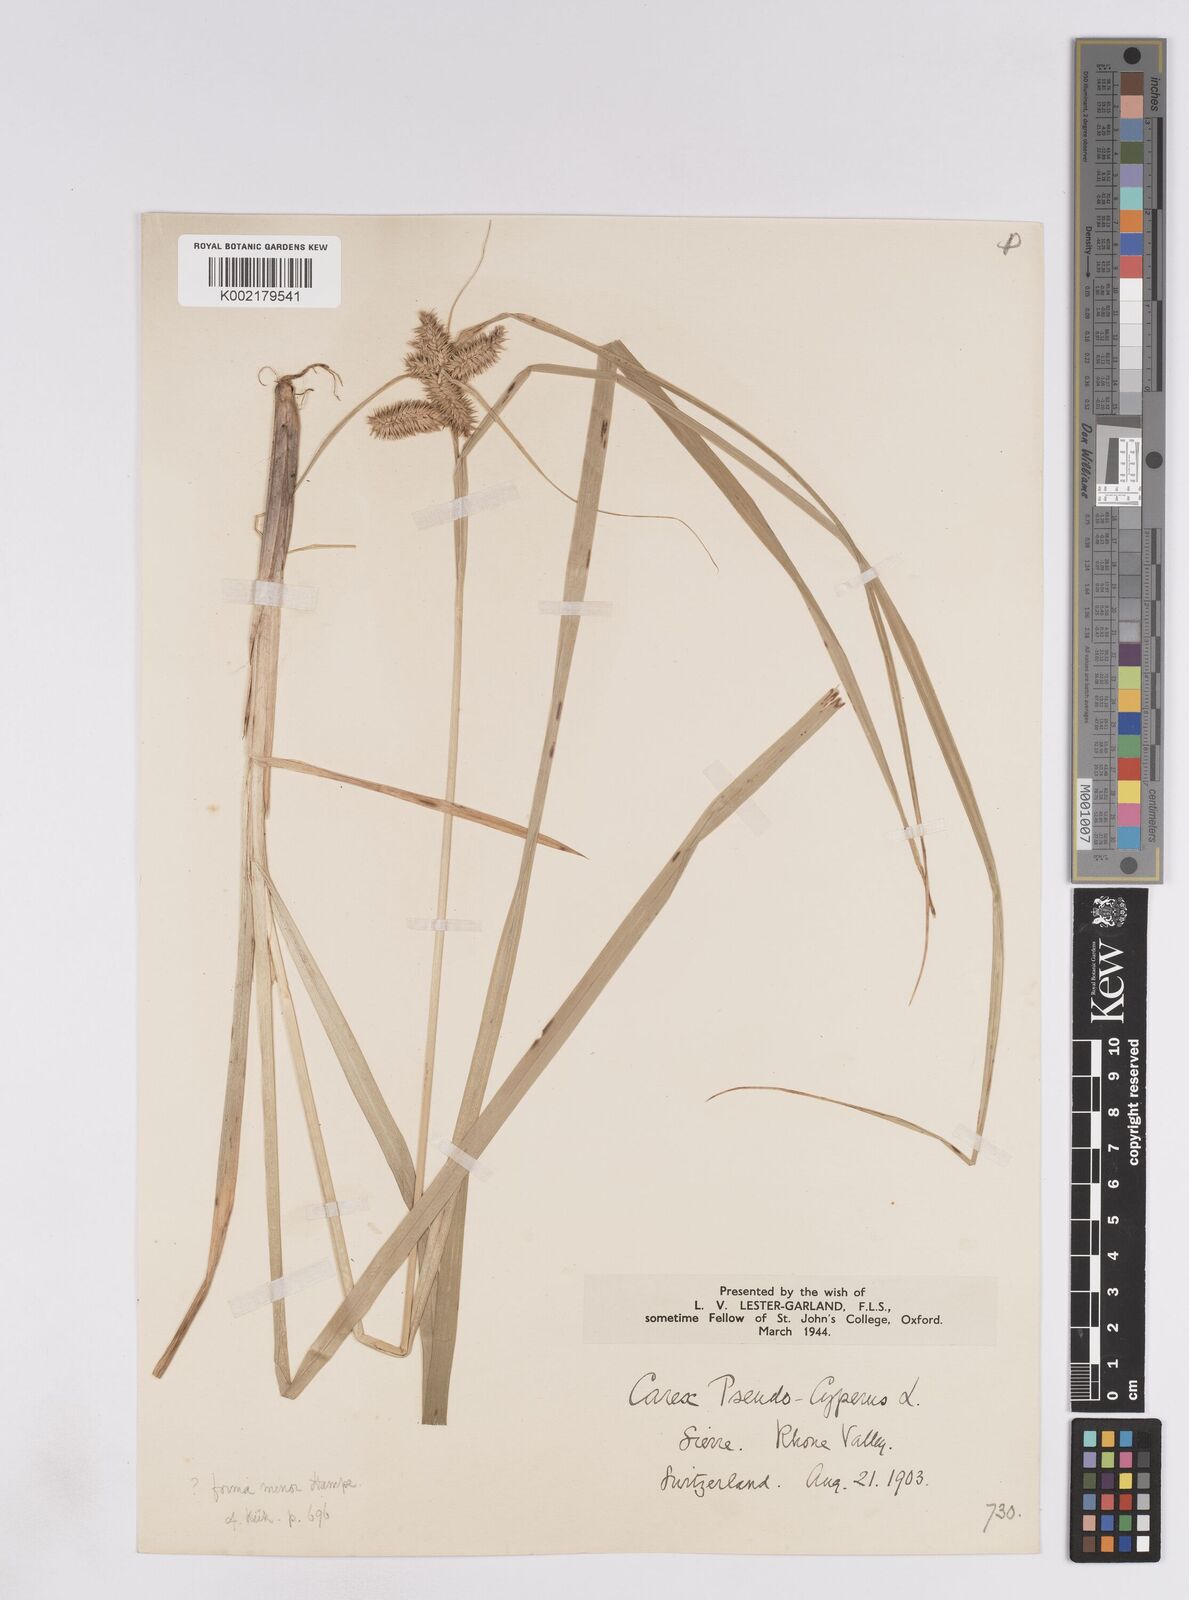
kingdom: Plantae
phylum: Tracheophyta
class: Liliopsida
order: Poales
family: Cyperaceae
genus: Carex
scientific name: Carex pseudocyperus
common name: Cyperus sedge
